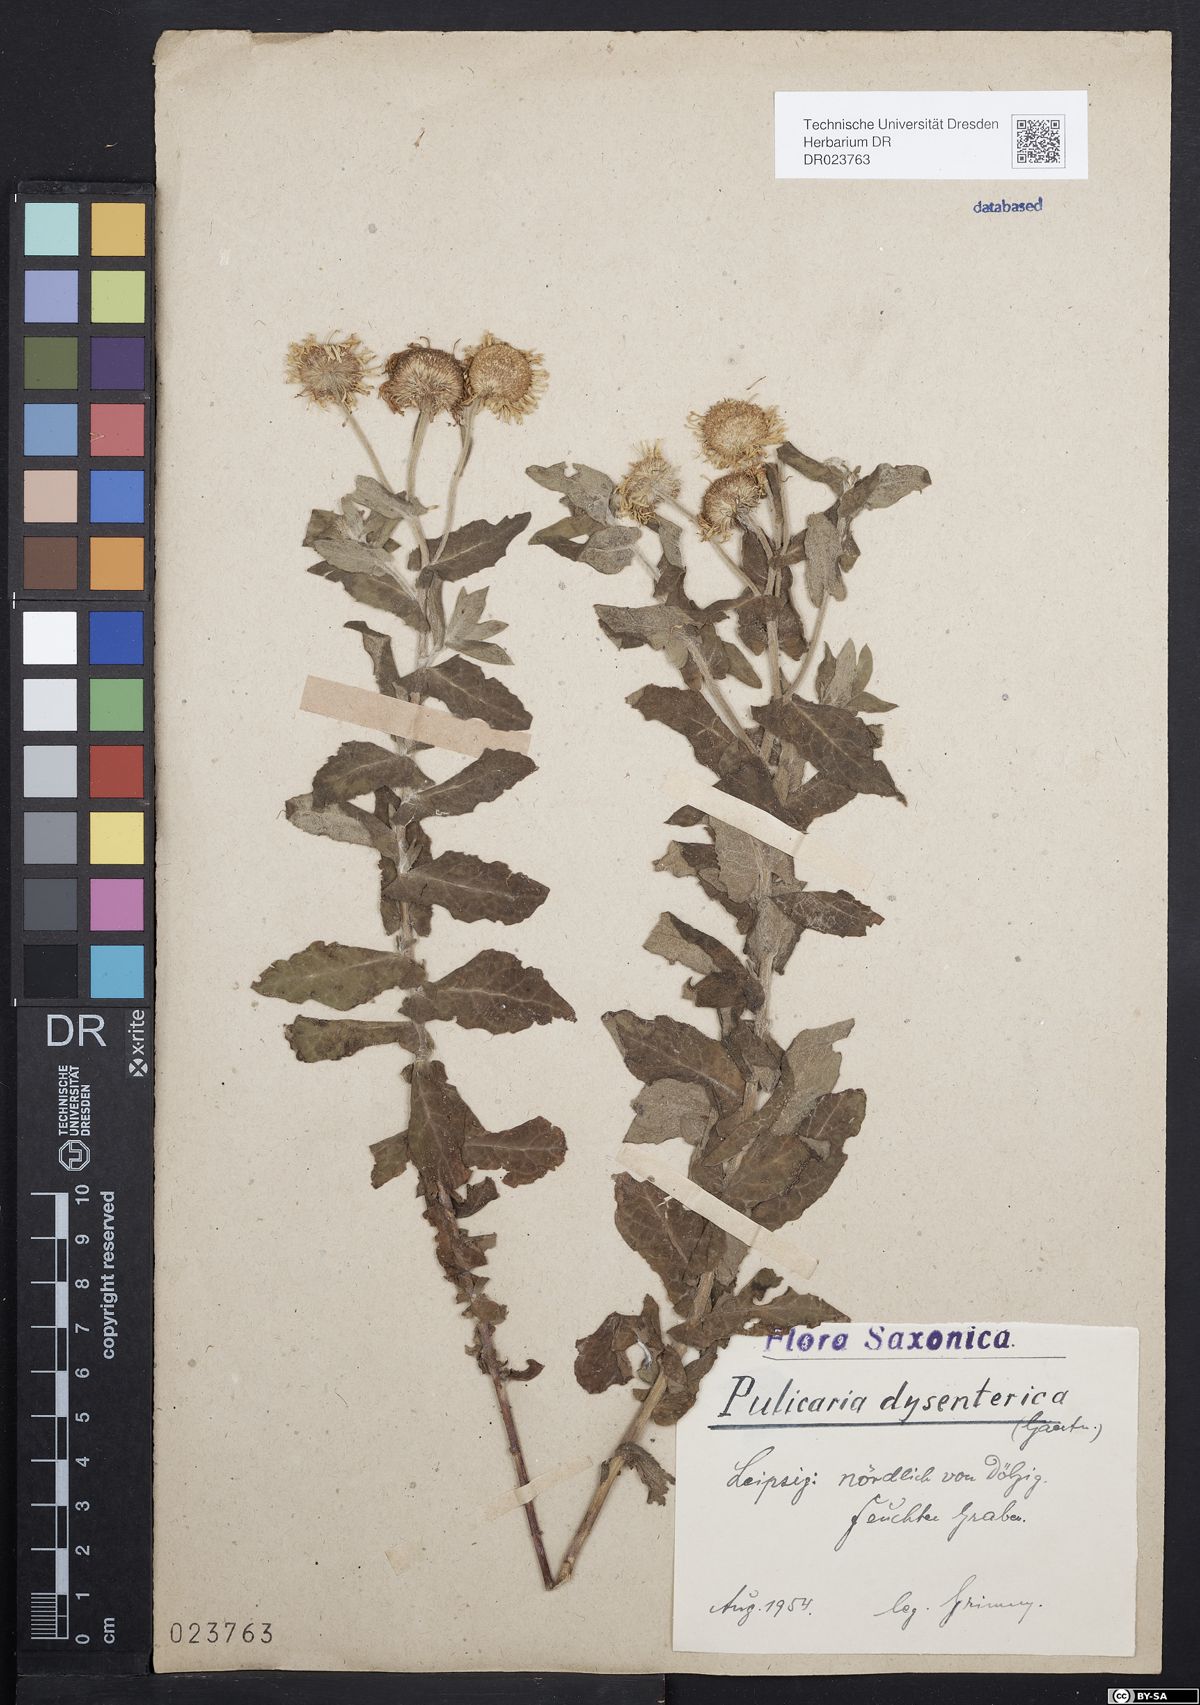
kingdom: Plantae
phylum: Tracheophyta
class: Magnoliopsida
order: Asterales
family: Asteraceae
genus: Pulicaria
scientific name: Pulicaria dysenterica
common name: Common fleabane
